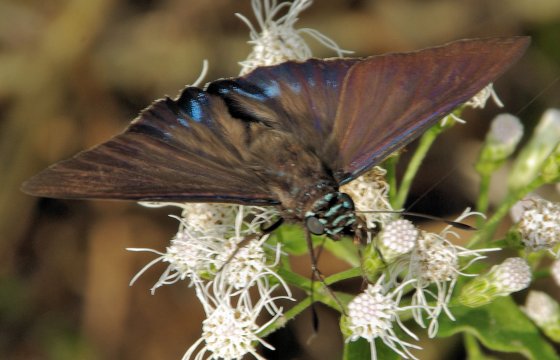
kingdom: Animalia
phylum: Arthropoda
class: Insecta
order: Lepidoptera
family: Hesperiidae
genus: Phocides
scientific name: Phocides pigmalion
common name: Mangrove Skipper
